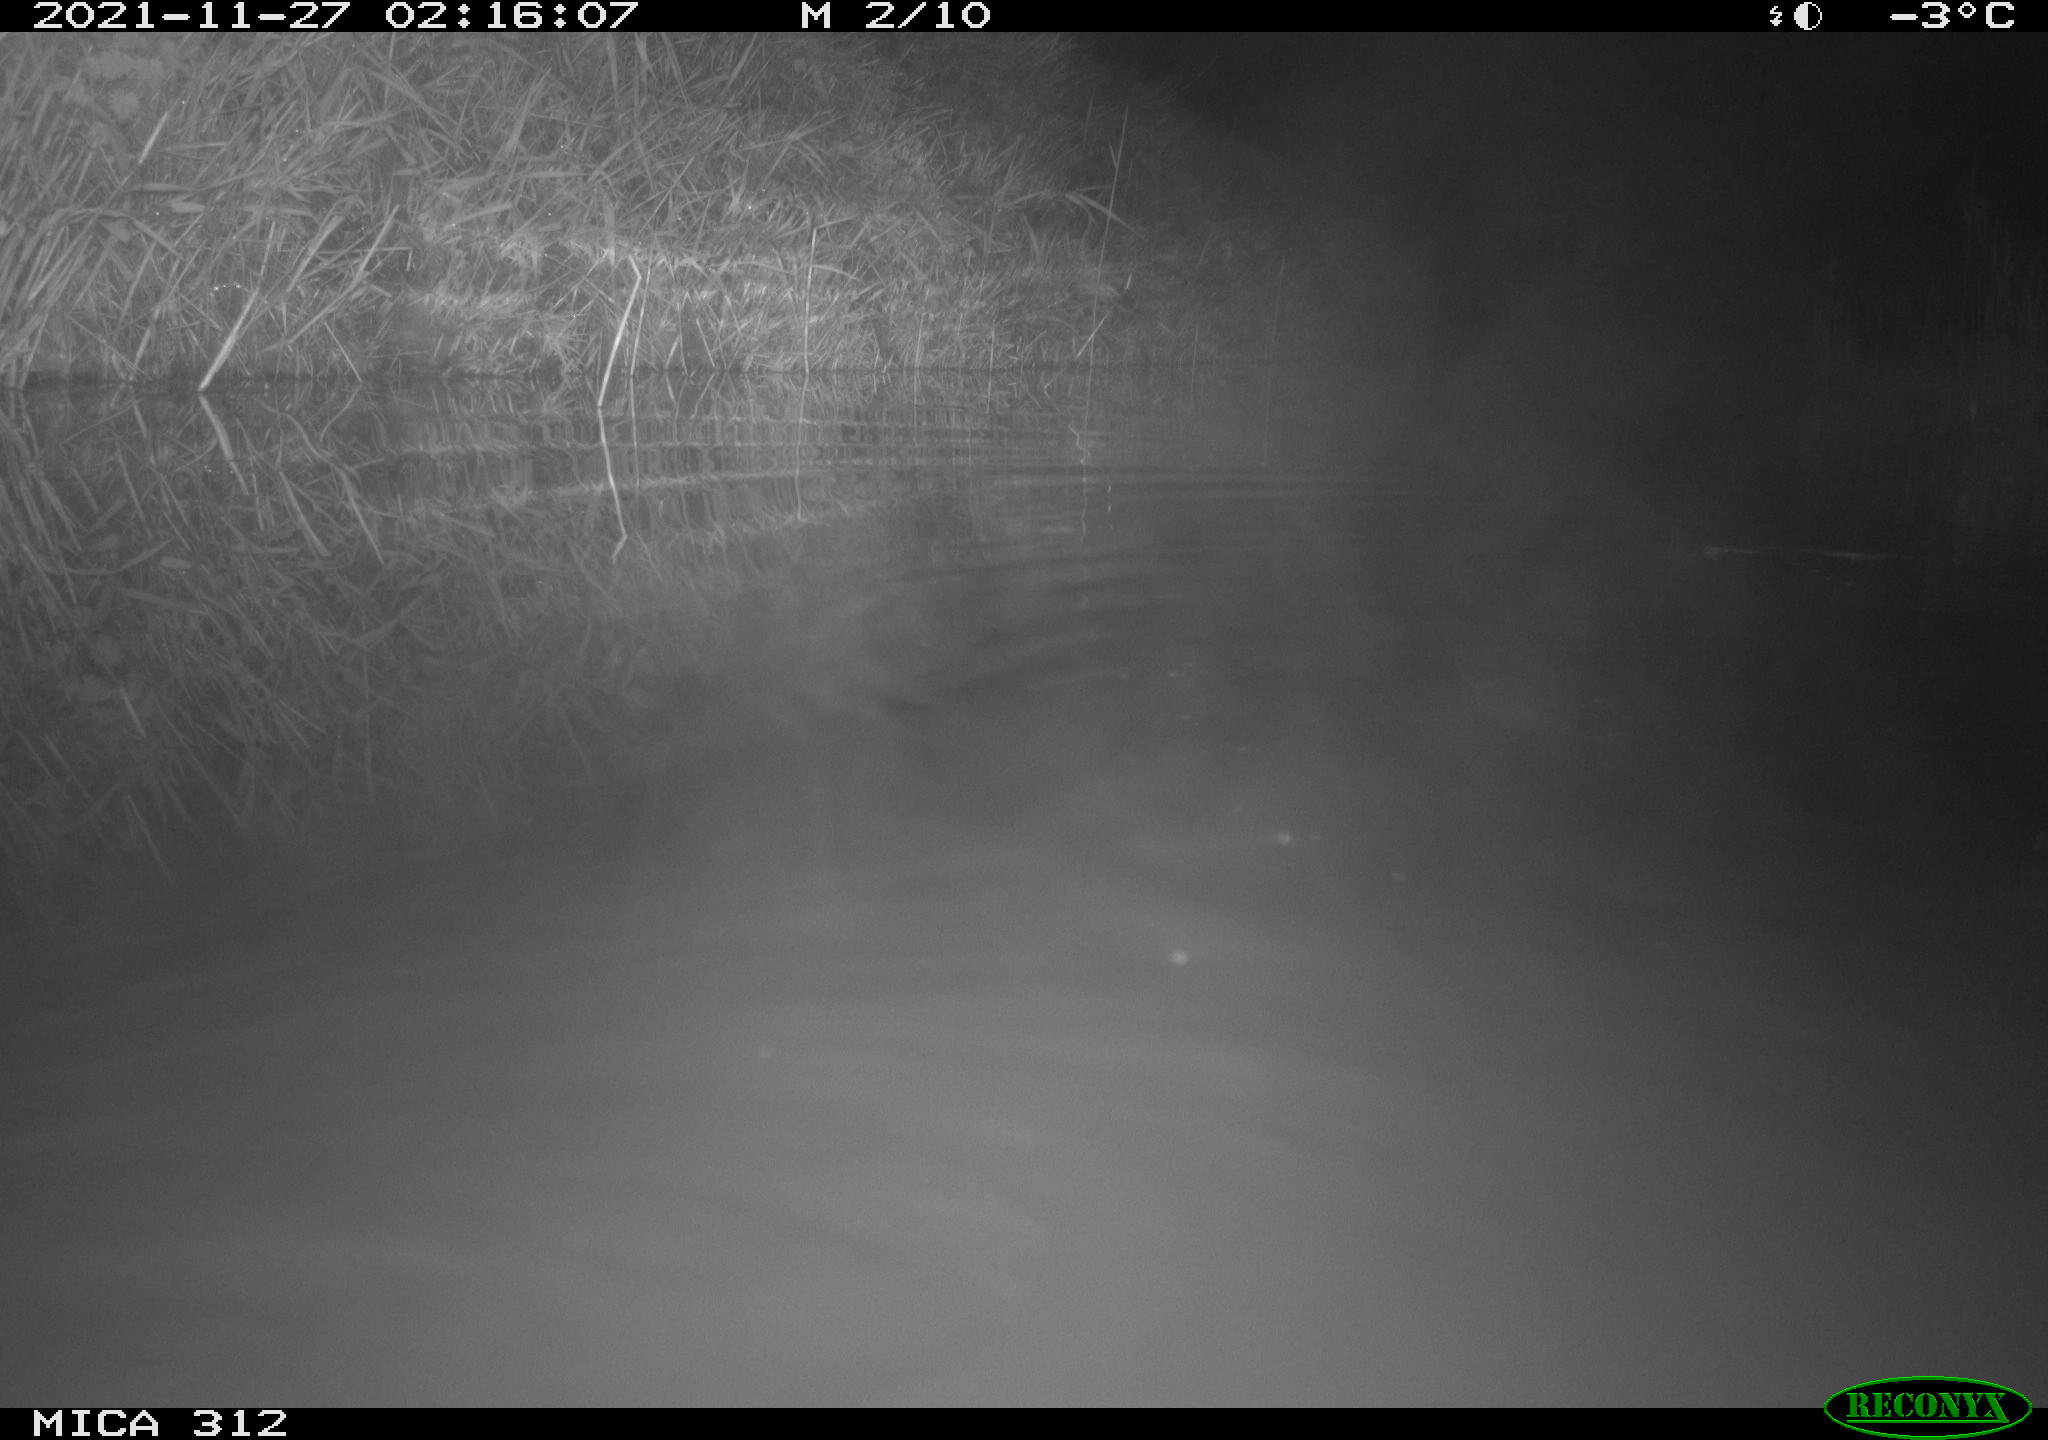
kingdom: Animalia
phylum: Chordata
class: Mammalia
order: Rodentia
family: Muridae
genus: Rattus
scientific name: Rattus norvegicus
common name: Brown rat
